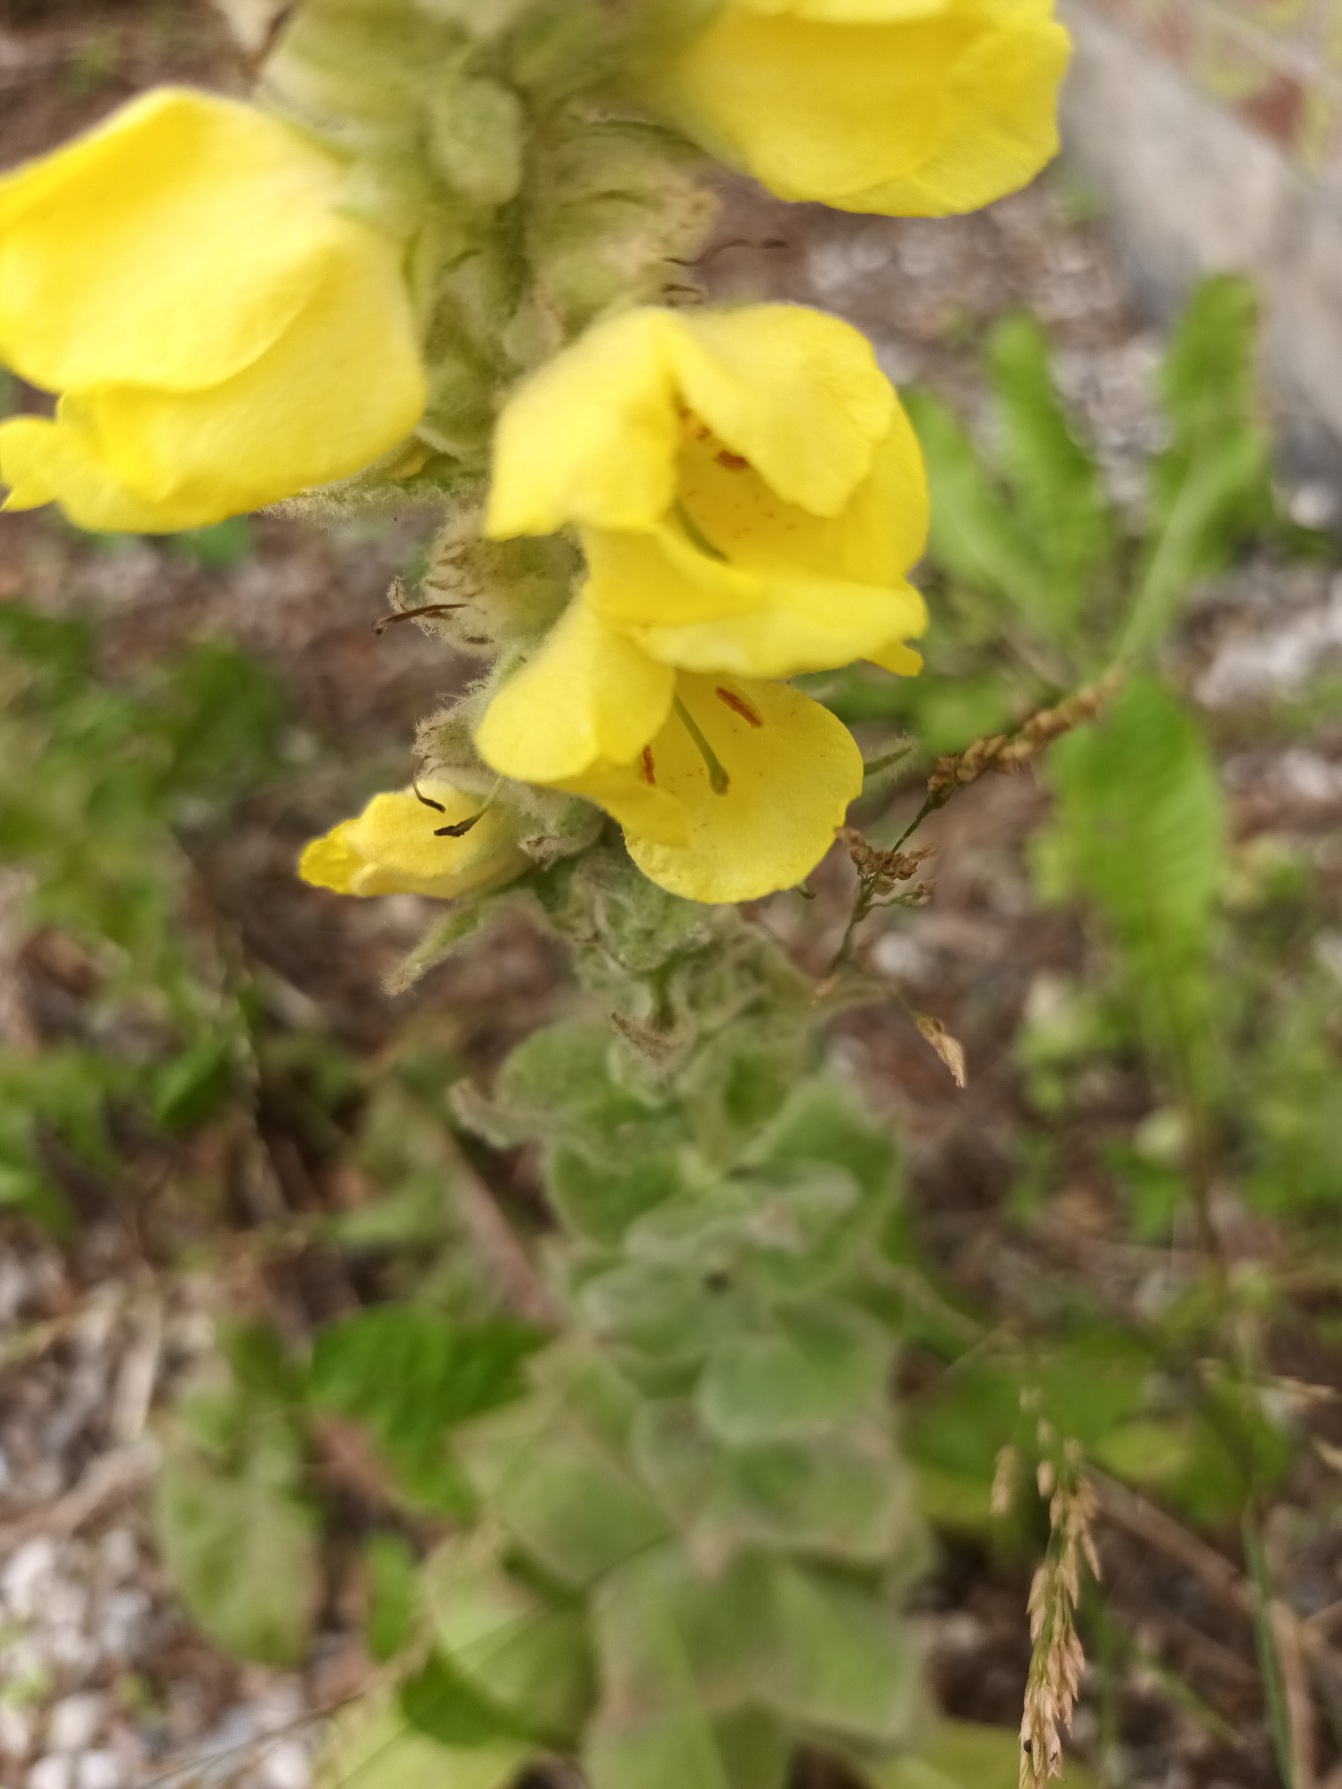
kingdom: Plantae
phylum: Tracheophyta
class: Magnoliopsida
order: Lamiales
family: Scrophulariaceae
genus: Verbascum
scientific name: Verbascum densiflorum
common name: Uldbladet kongelys
